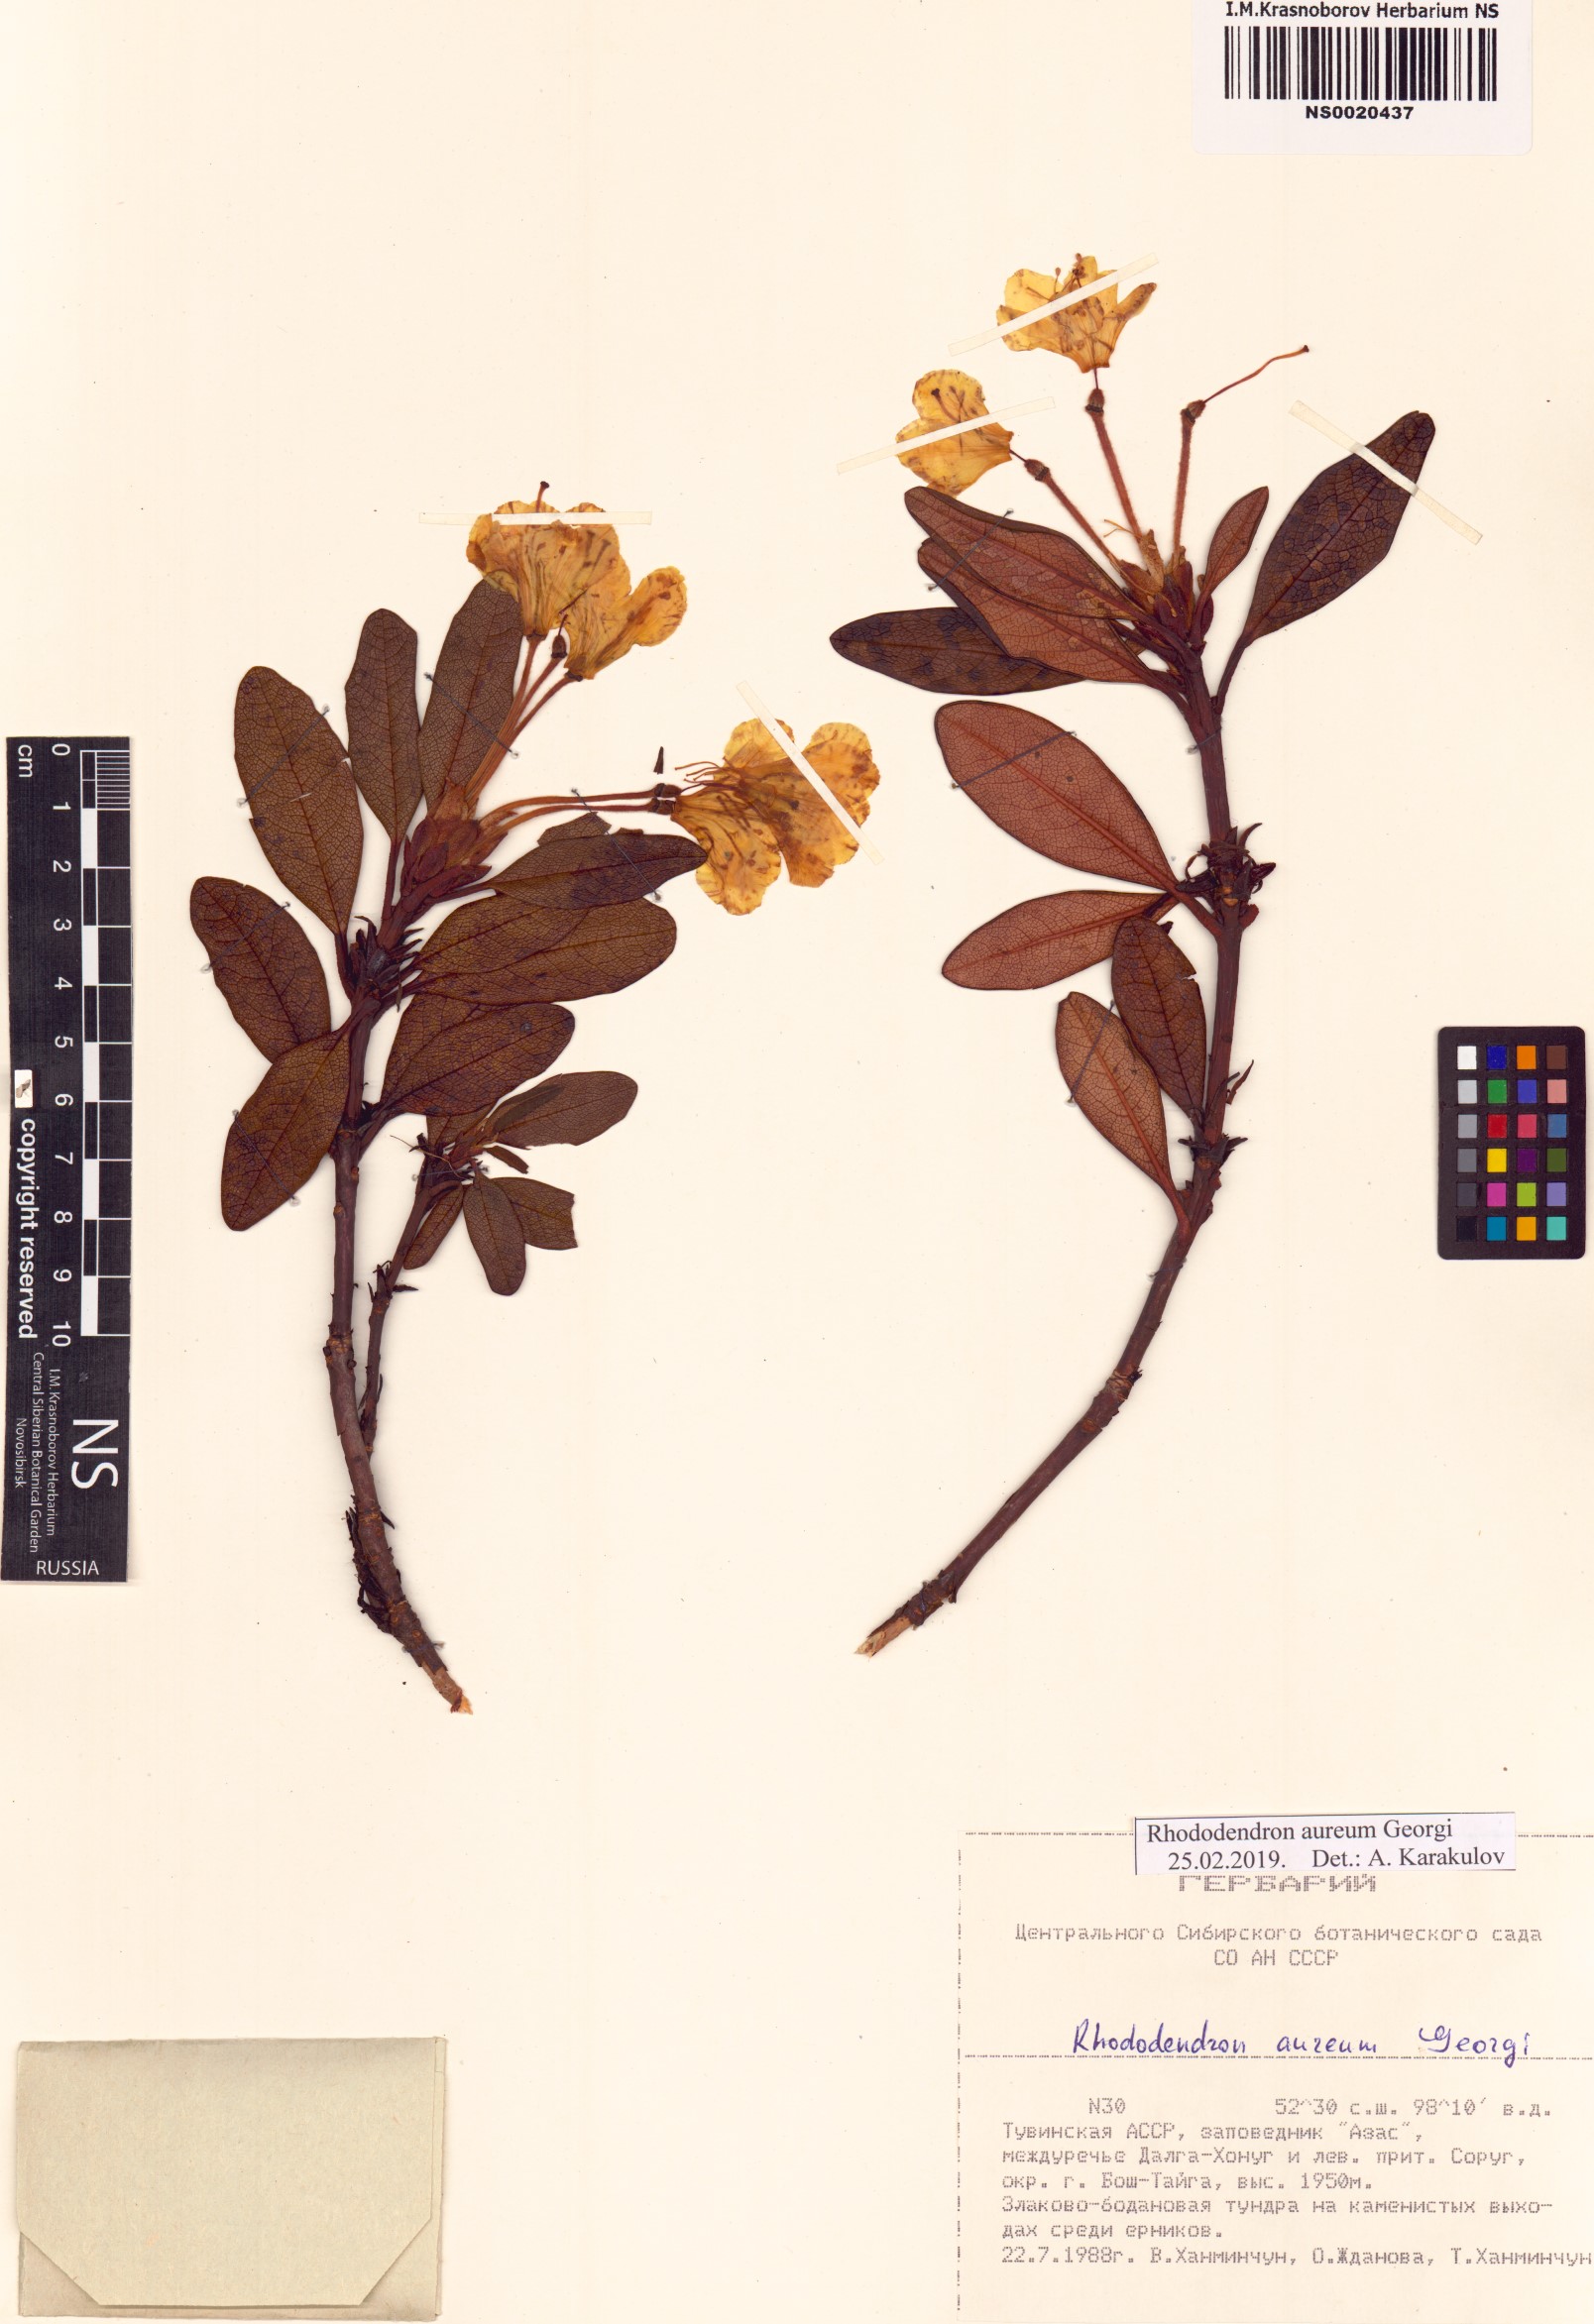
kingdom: Plantae
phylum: Tracheophyta
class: Magnoliopsida
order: Ericales
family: Ericaceae
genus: Rhododendron
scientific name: Rhododendron aureum
